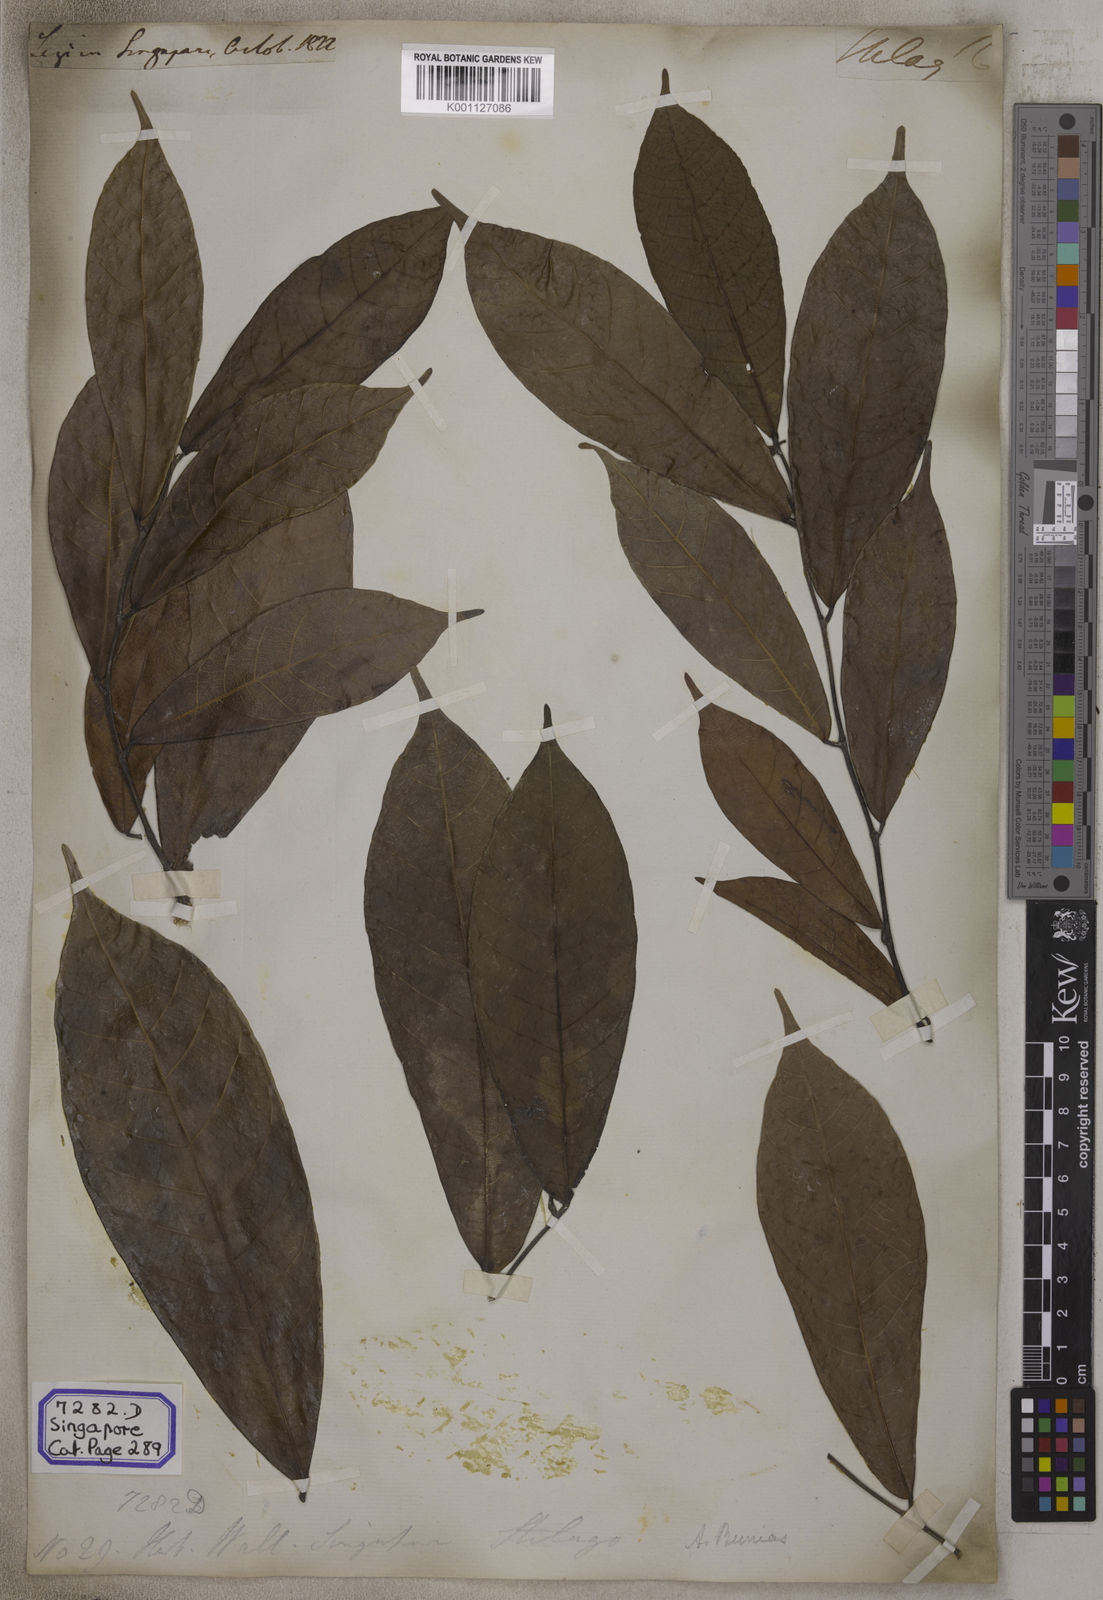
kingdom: Plantae
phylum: Tracheophyta
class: Magnoliopsida
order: Malpighiales
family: Phyllanthaceae
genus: Antidesma
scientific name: Antidesma nigricans
